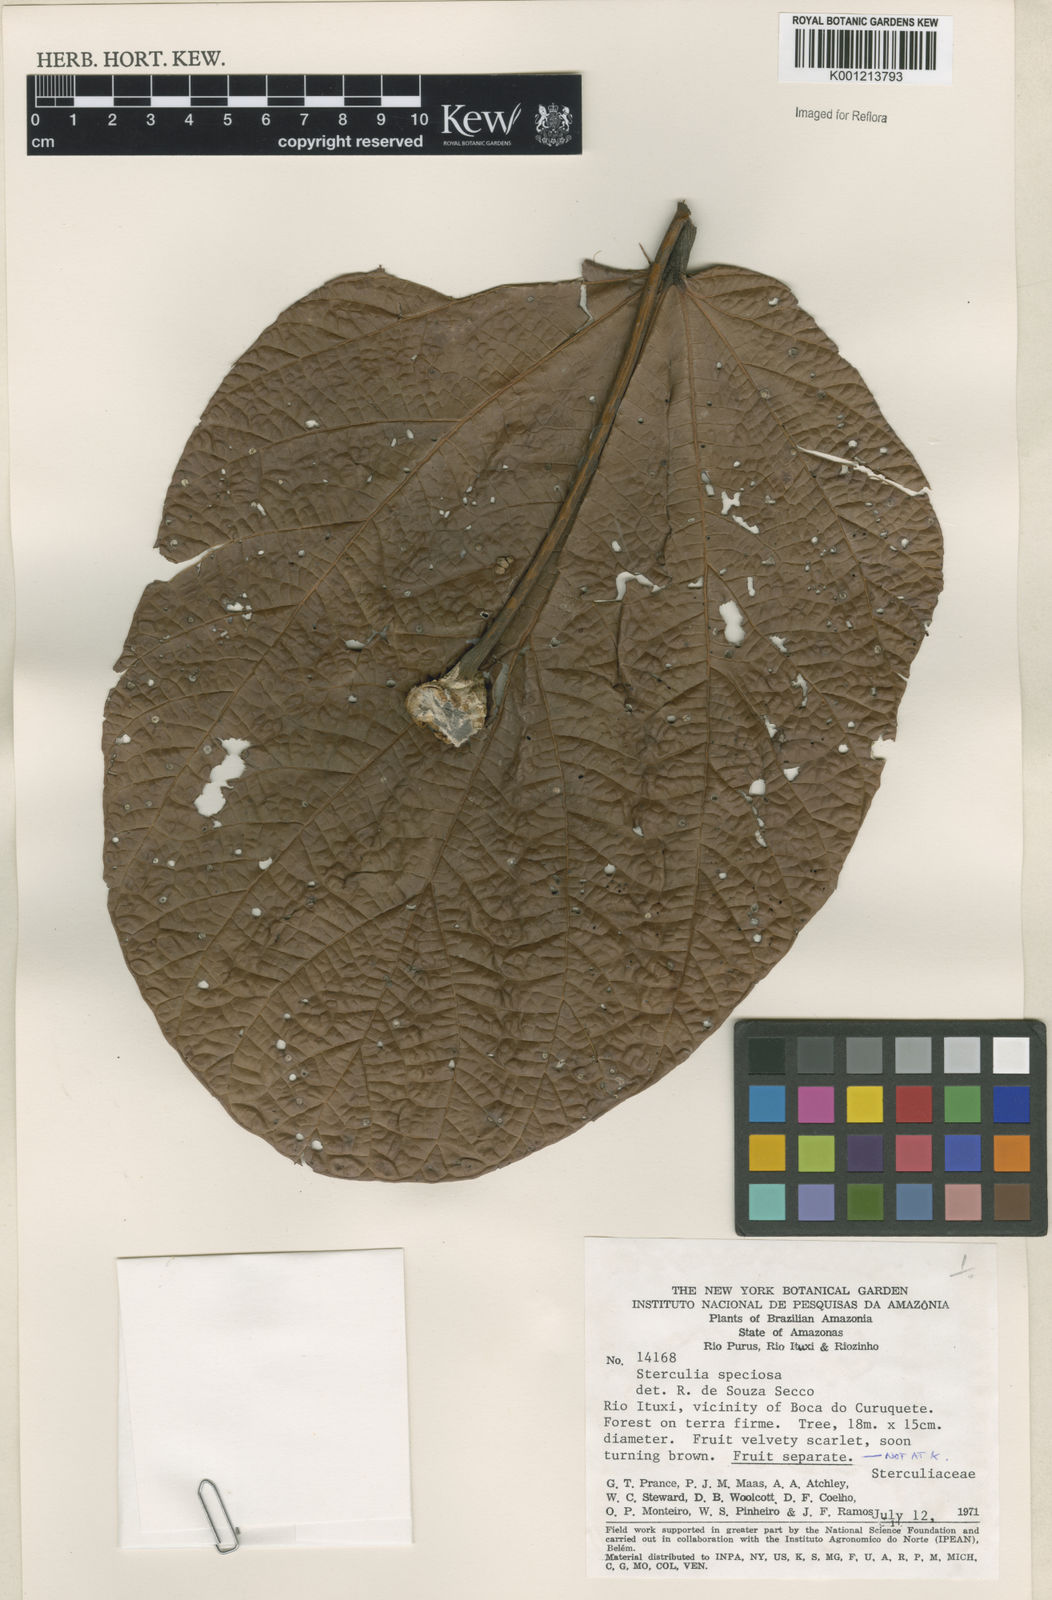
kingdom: Plantae
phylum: Tracheophyta
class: Magnoliopsida
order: Malvales
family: Malvaceae
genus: Sterculia
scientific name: Sterculia speciosa
